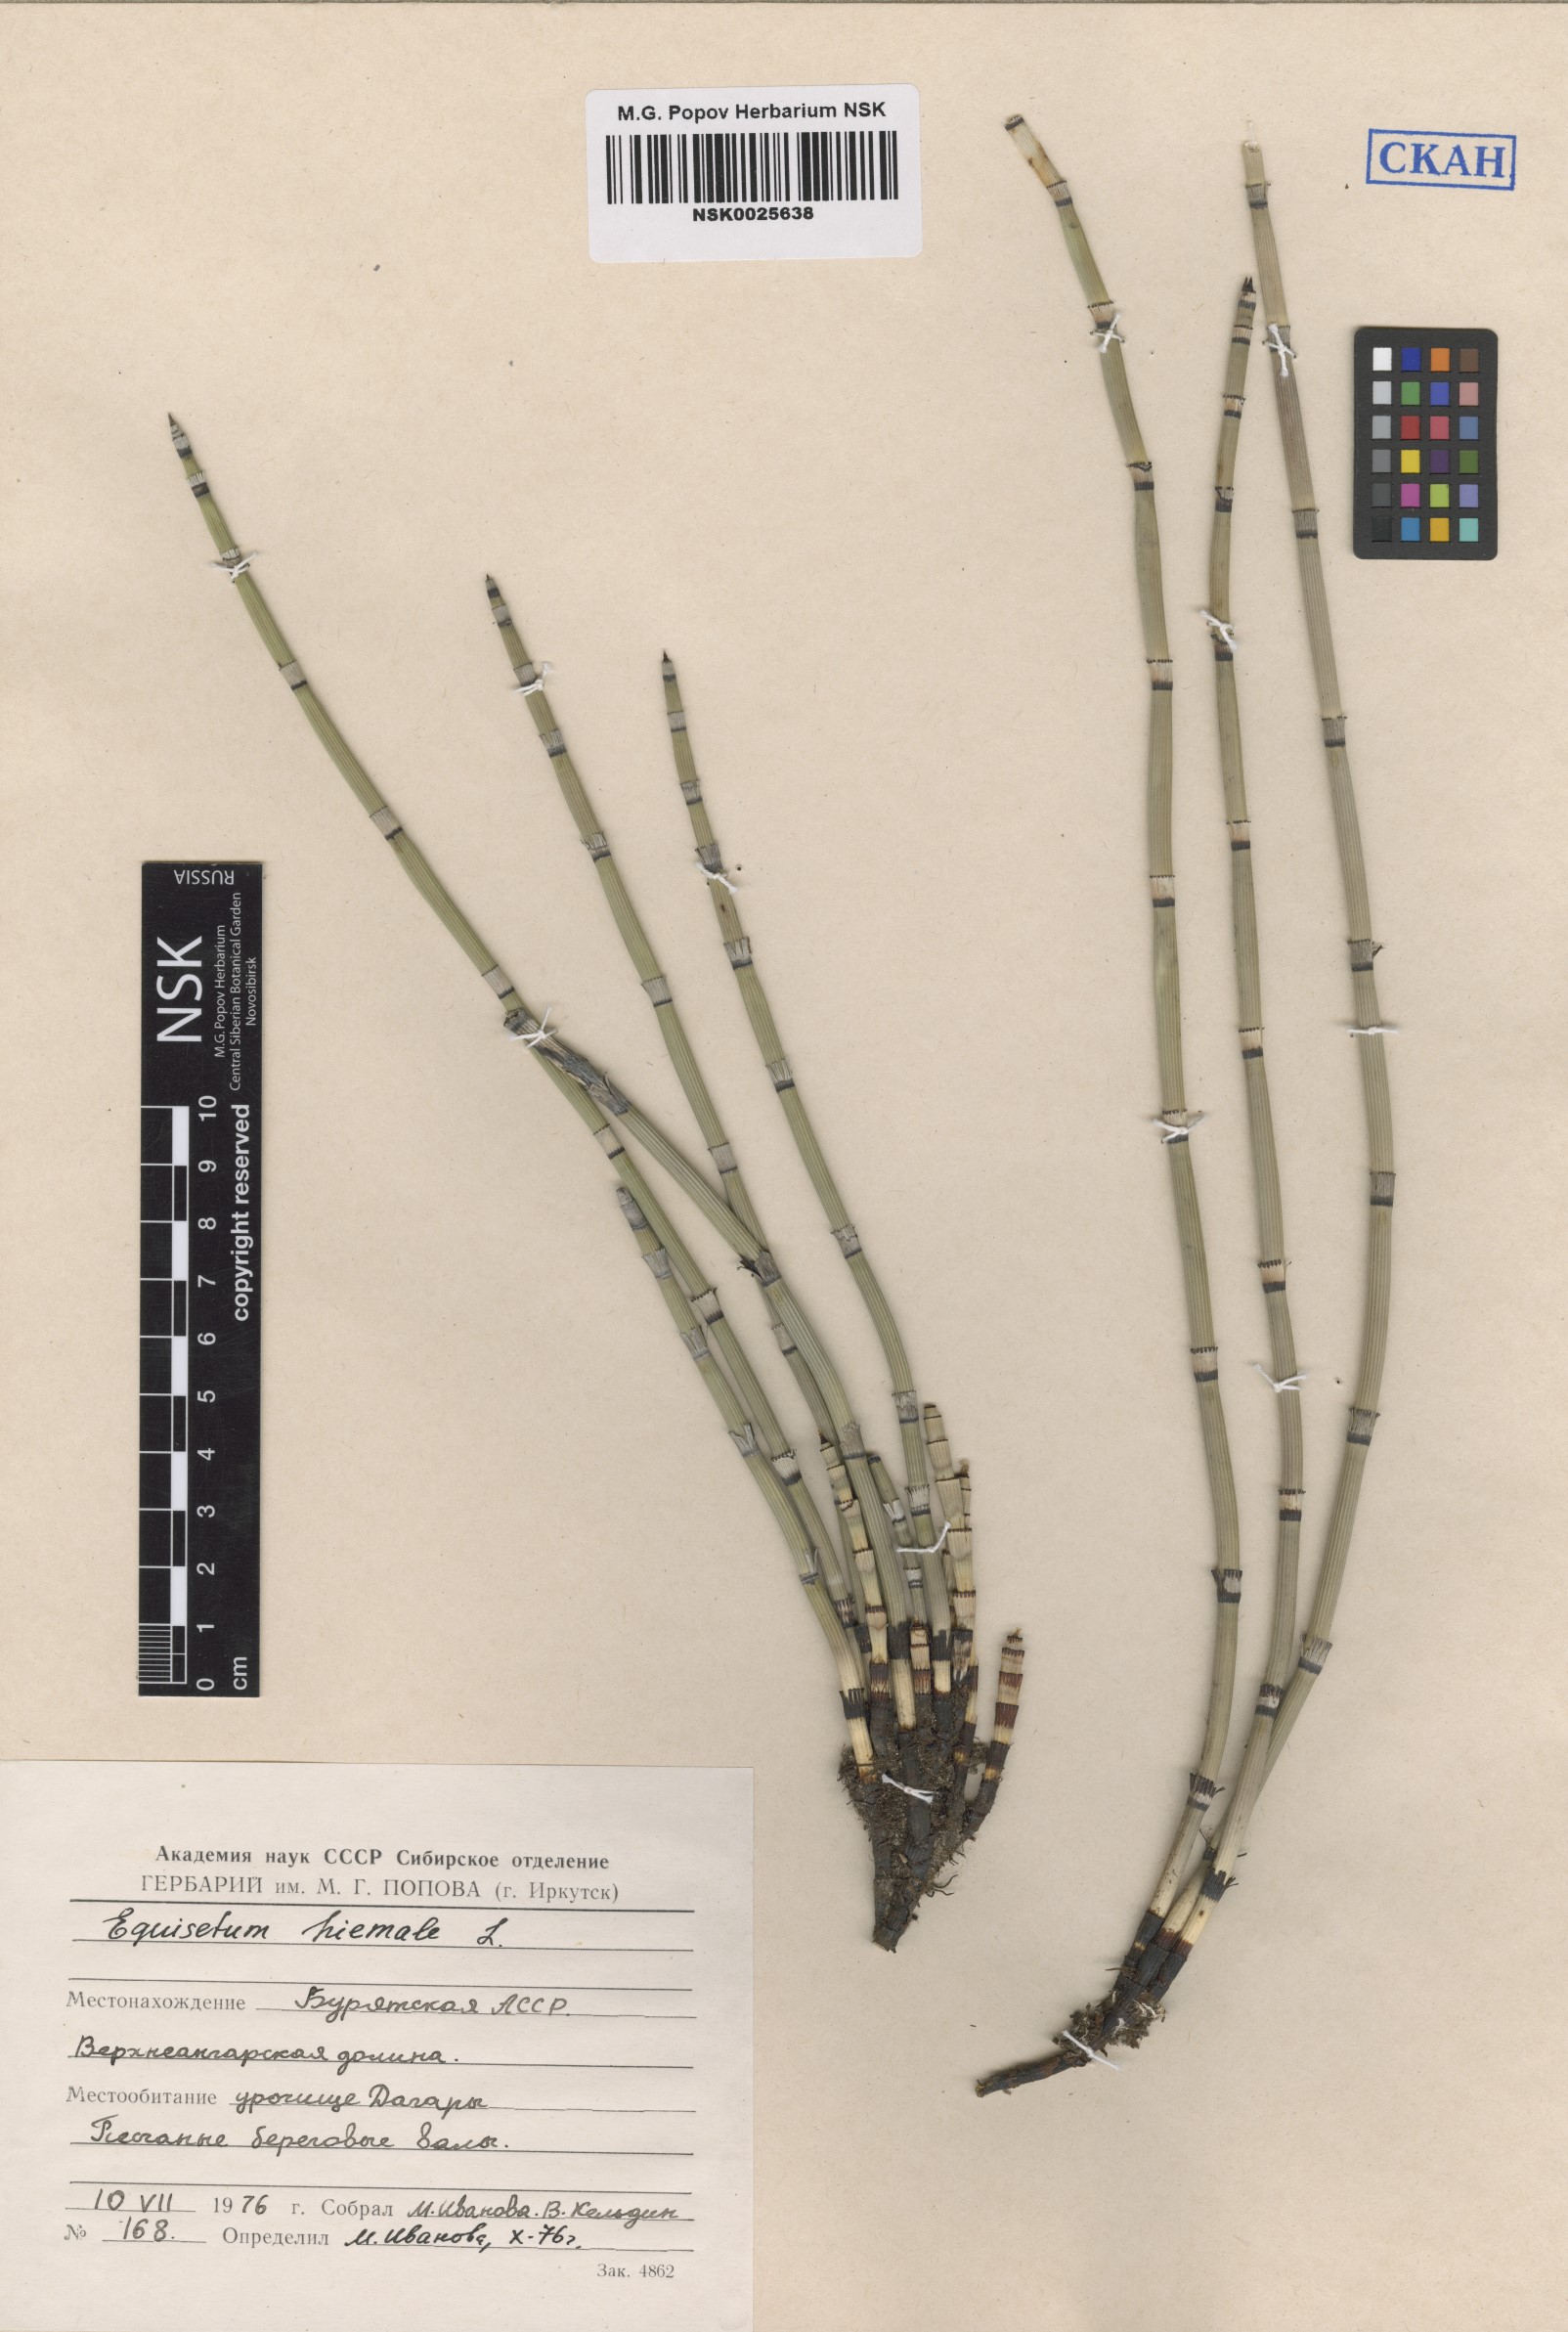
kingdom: Plantae
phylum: Tracheophyta
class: Polypodiopsida
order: Equisetales
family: Equisetaceae
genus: Equisetum
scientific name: Equisetum hyemale
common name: Rough horsetail
